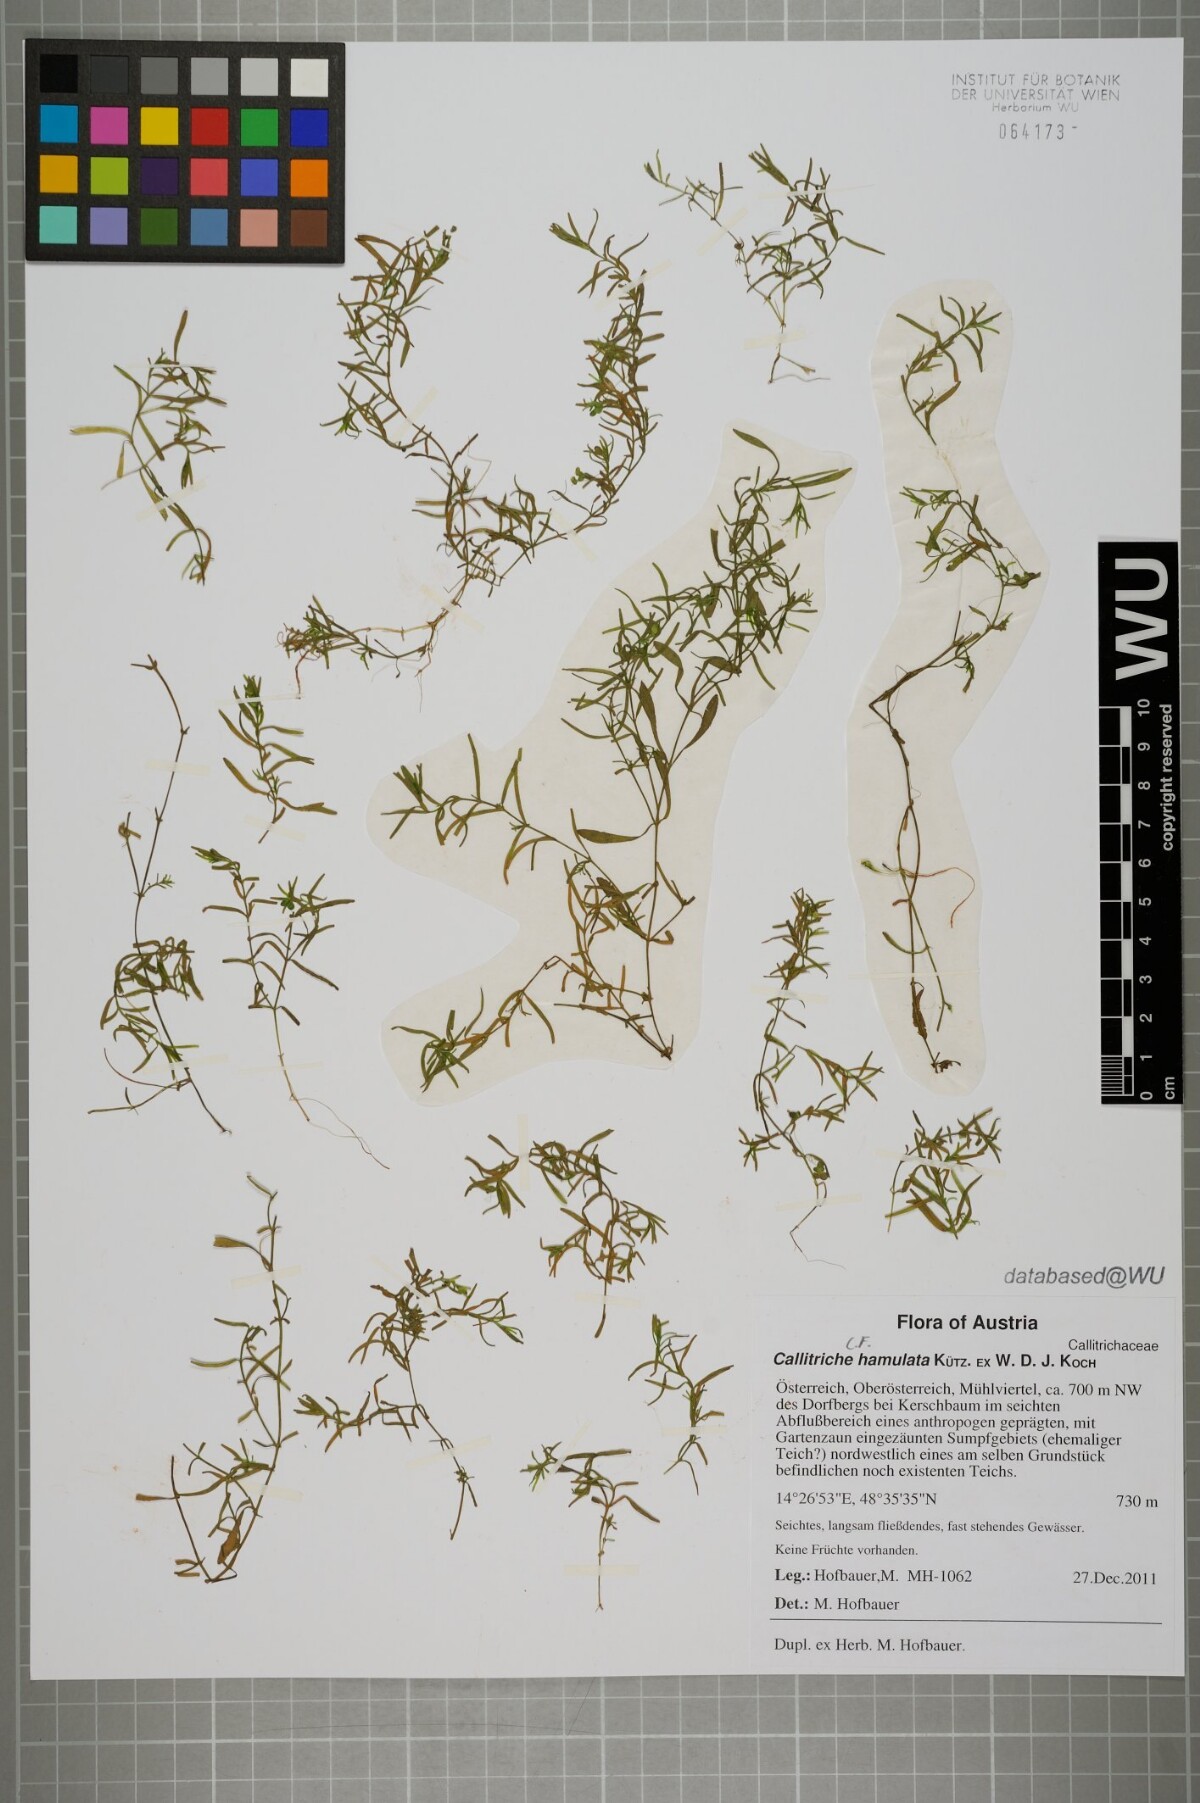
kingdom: Plantae
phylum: Tracheophyta
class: Magnoliopsida
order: Lamiales
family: Plantaginaceae
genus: Callitriche
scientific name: Callitriche palustris
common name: Spring water-starwort
